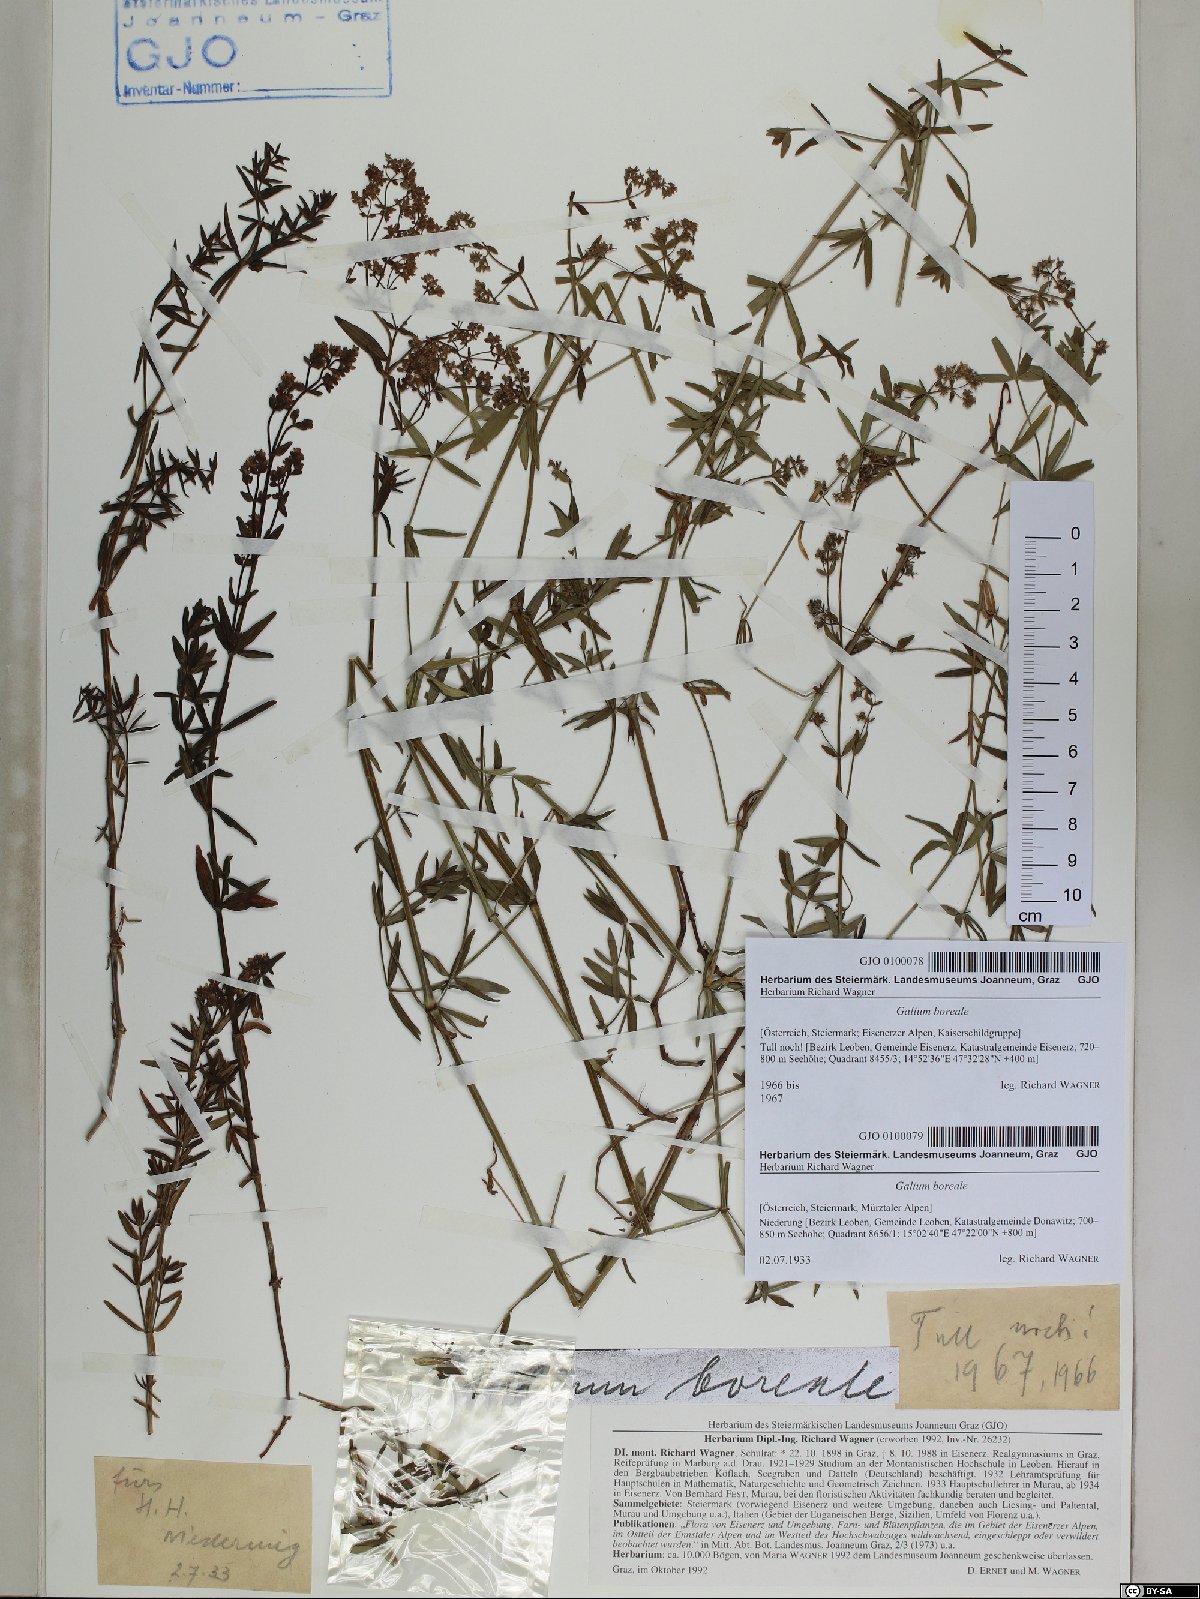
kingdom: Plantae
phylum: Tracheophyta
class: Magnoliopsida
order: Gentianales
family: Rubiaceae
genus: Galium
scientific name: Galium boreale
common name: Northern bedstraw
